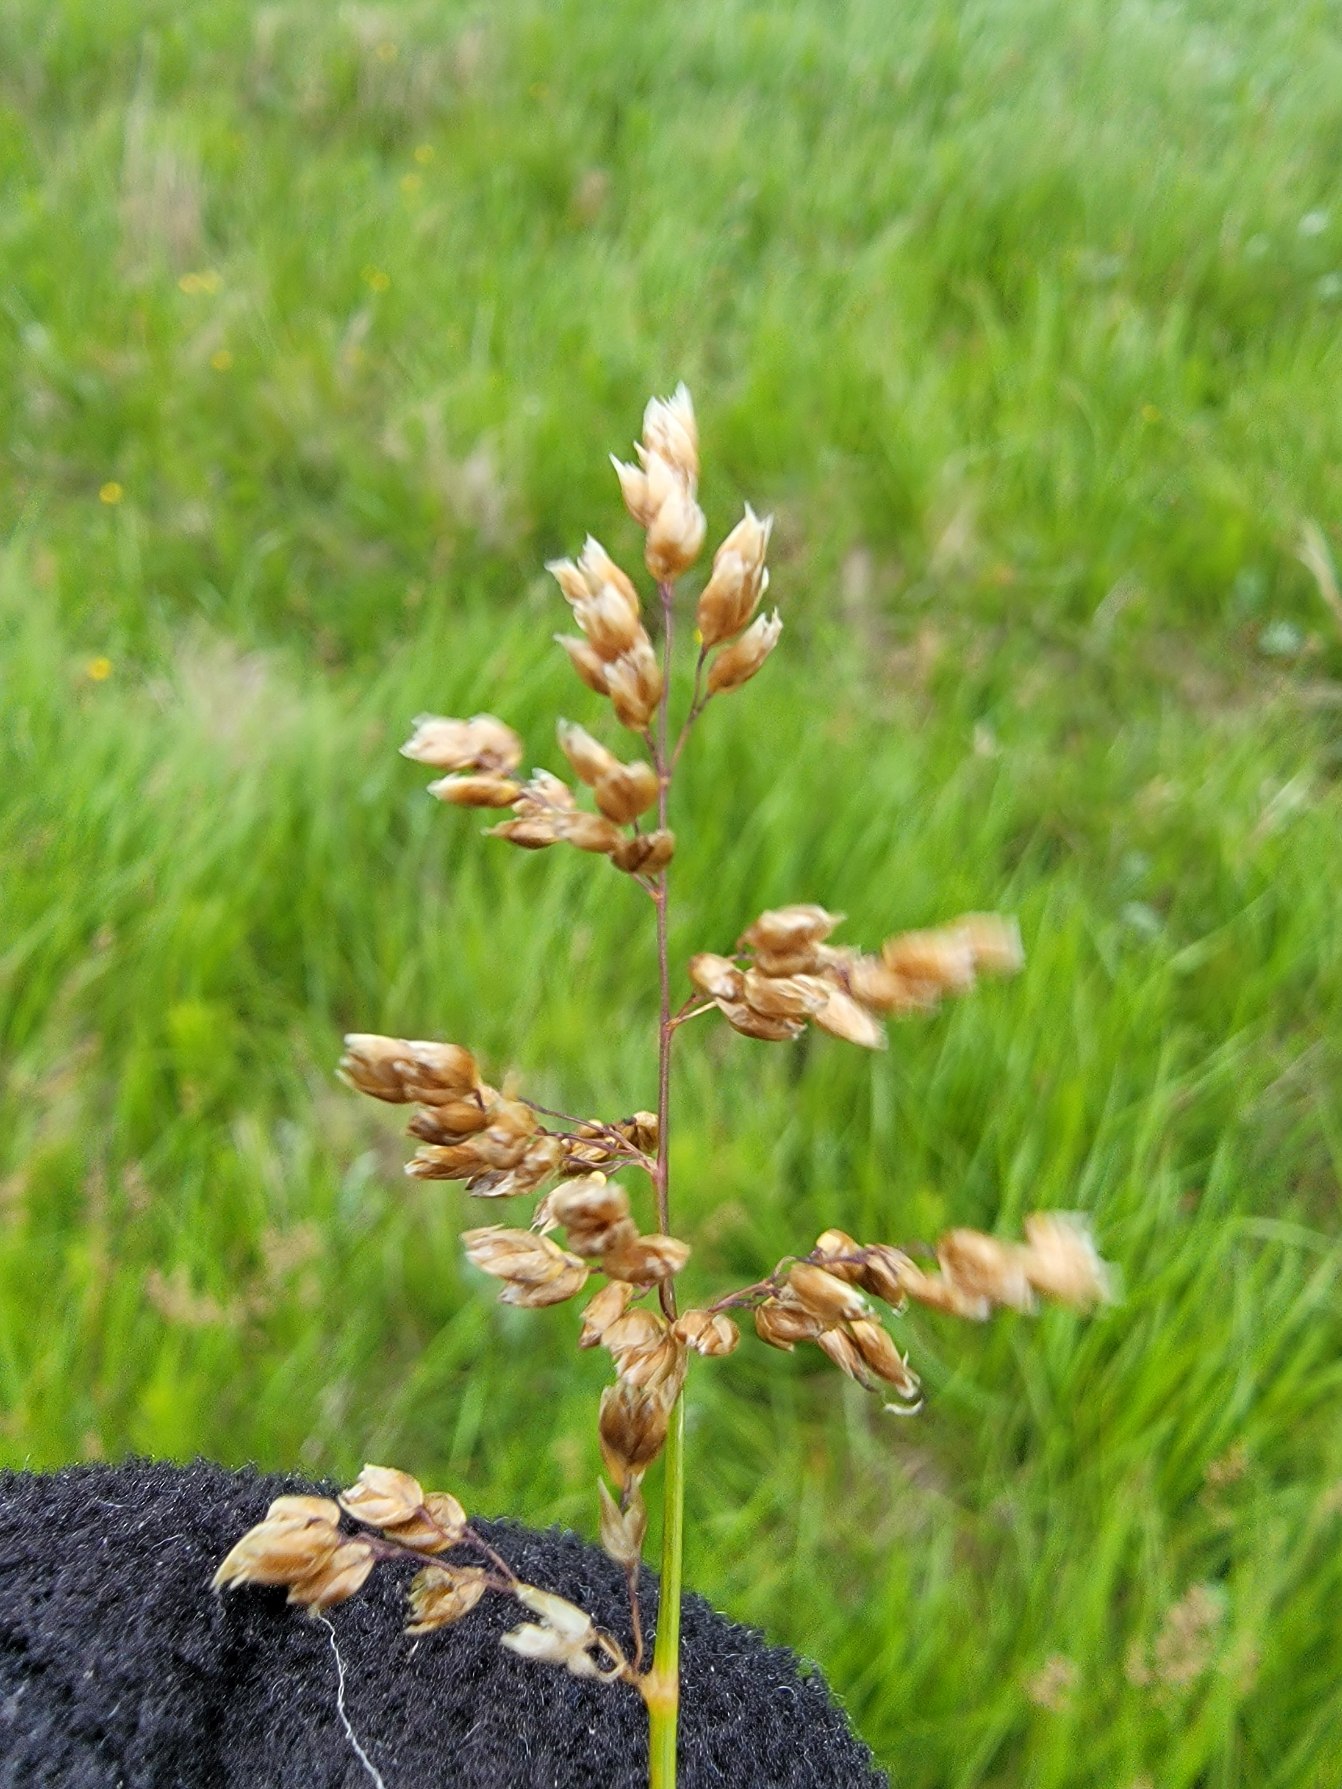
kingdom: Plantae
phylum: Tracheophyta
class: Liliopsida
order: Poales
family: Poaceae
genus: Anthoxanthum
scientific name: Anthoxanthum nitens
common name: Festgræs
